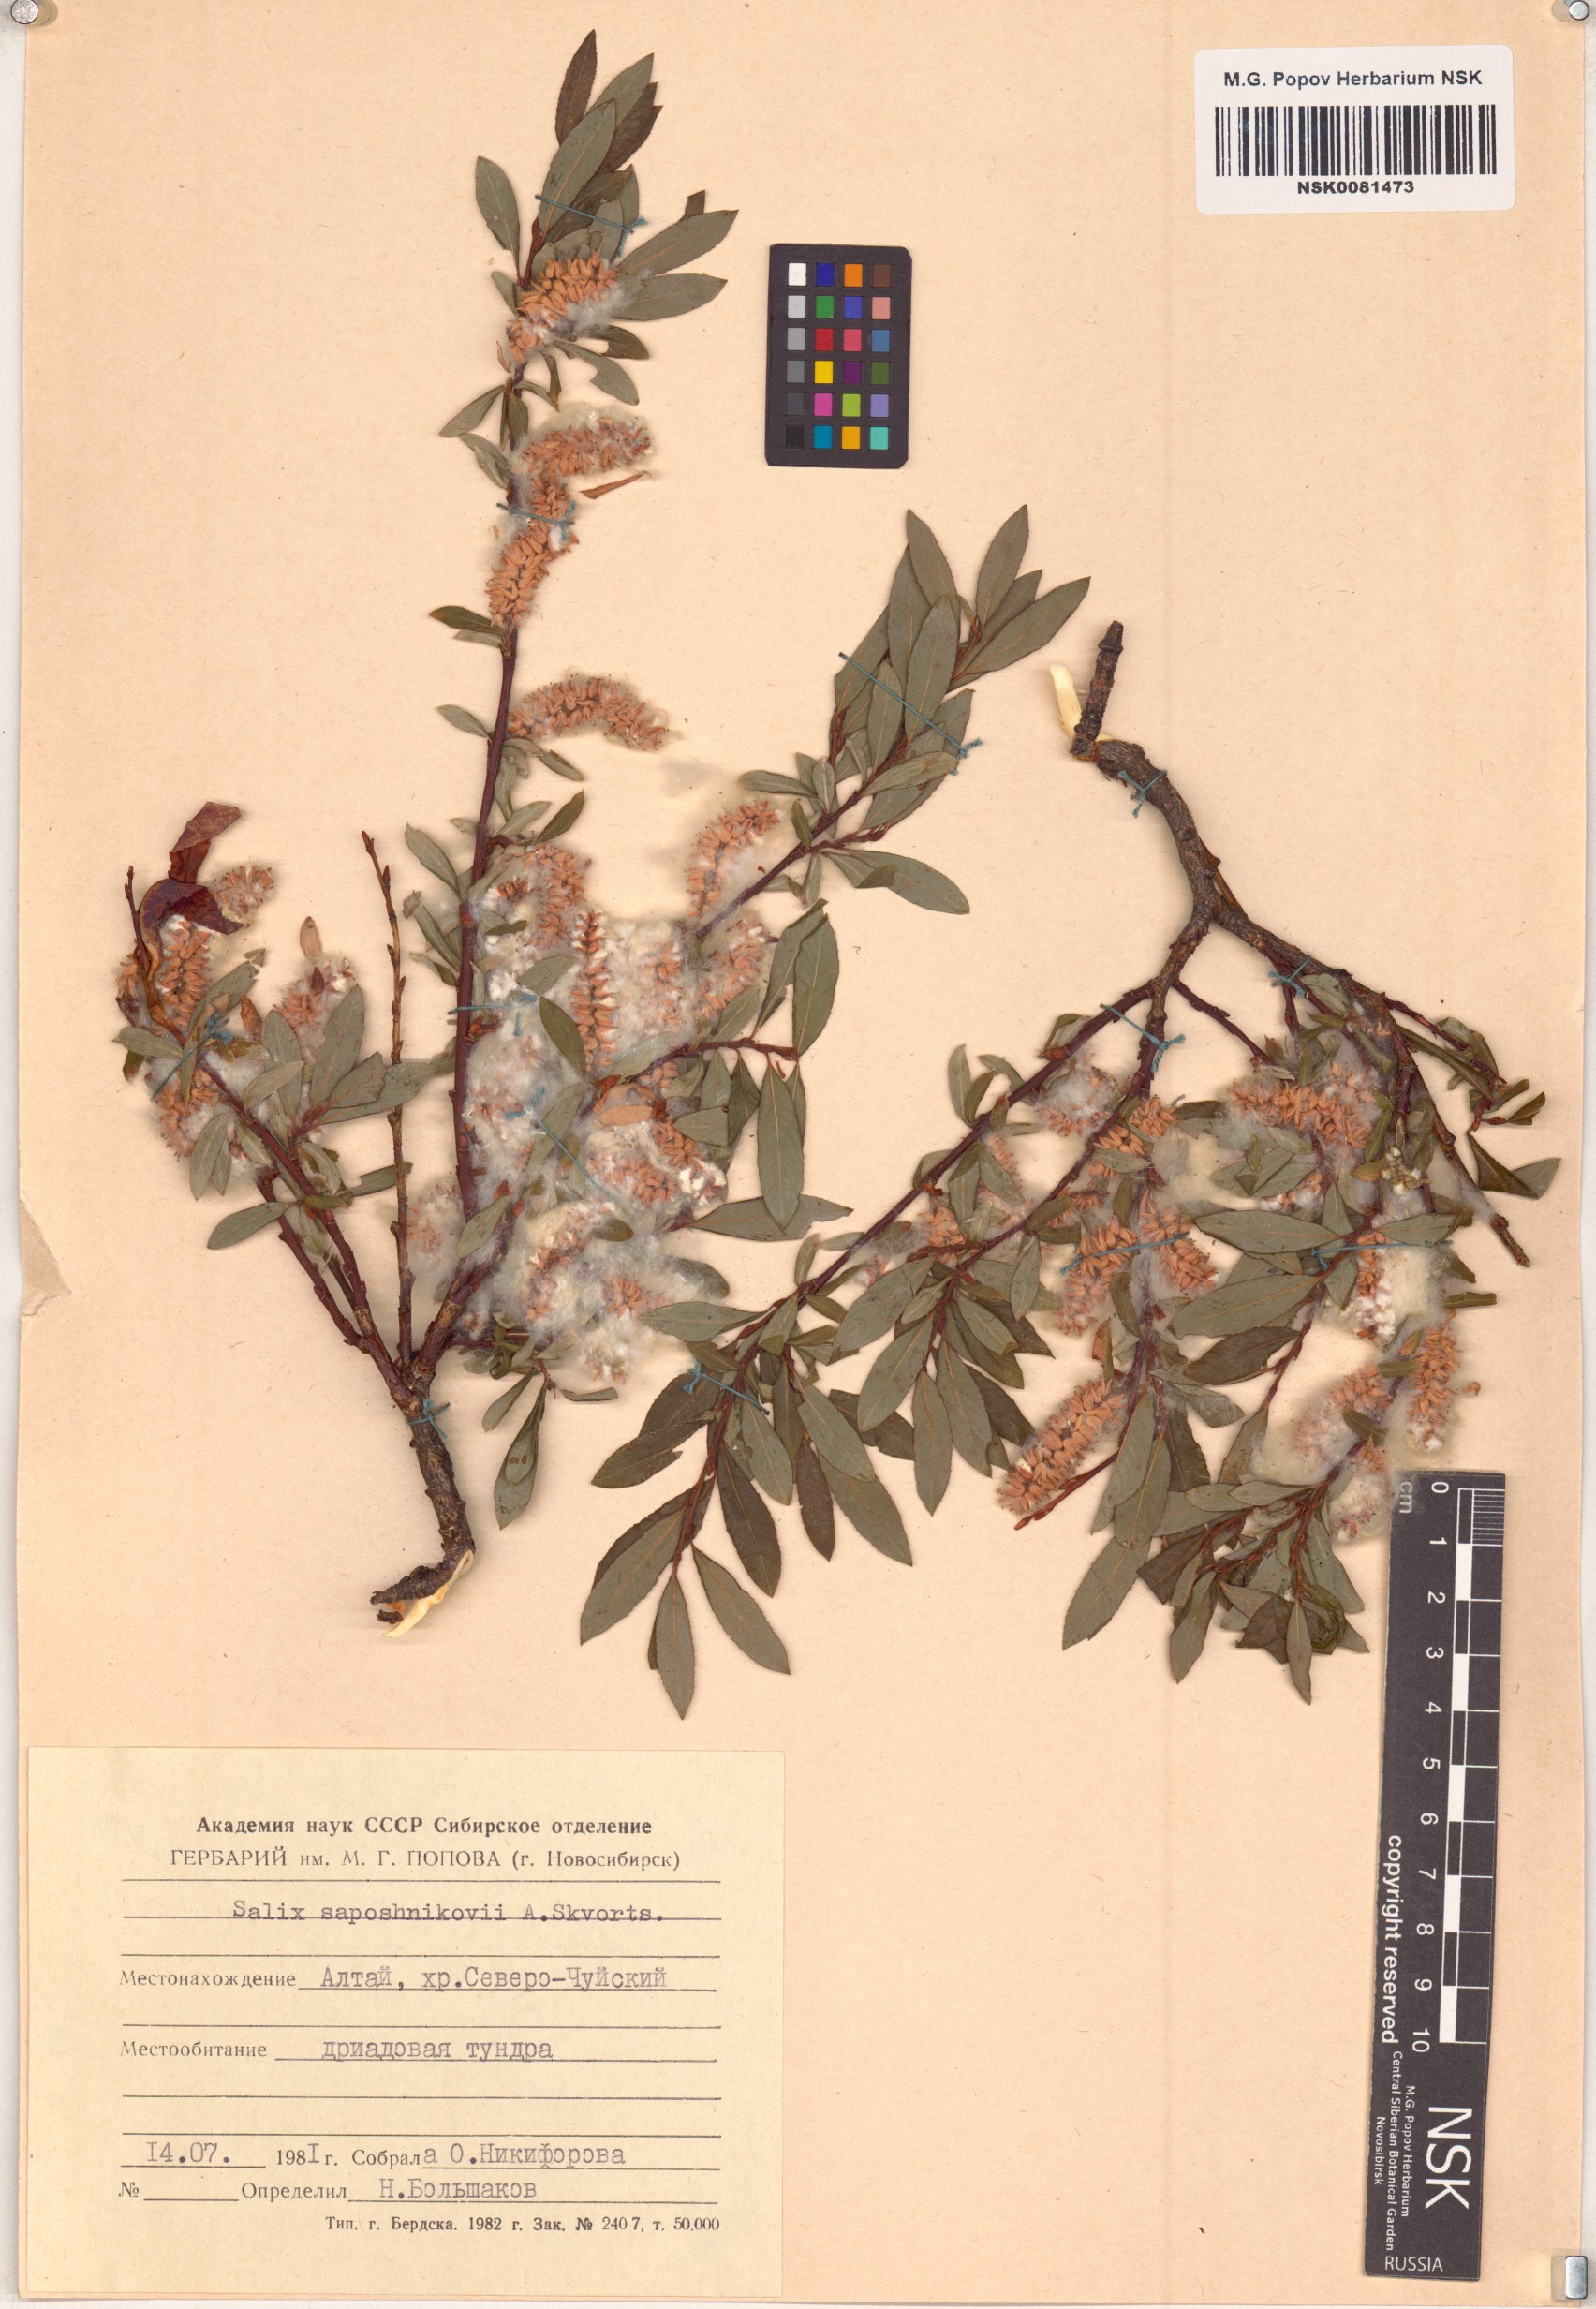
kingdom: Plantae
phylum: Tracheophyta
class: Magnoliopsida
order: Malpighiales
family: Salicaceae
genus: Salix
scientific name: Salix saposhnikovii
